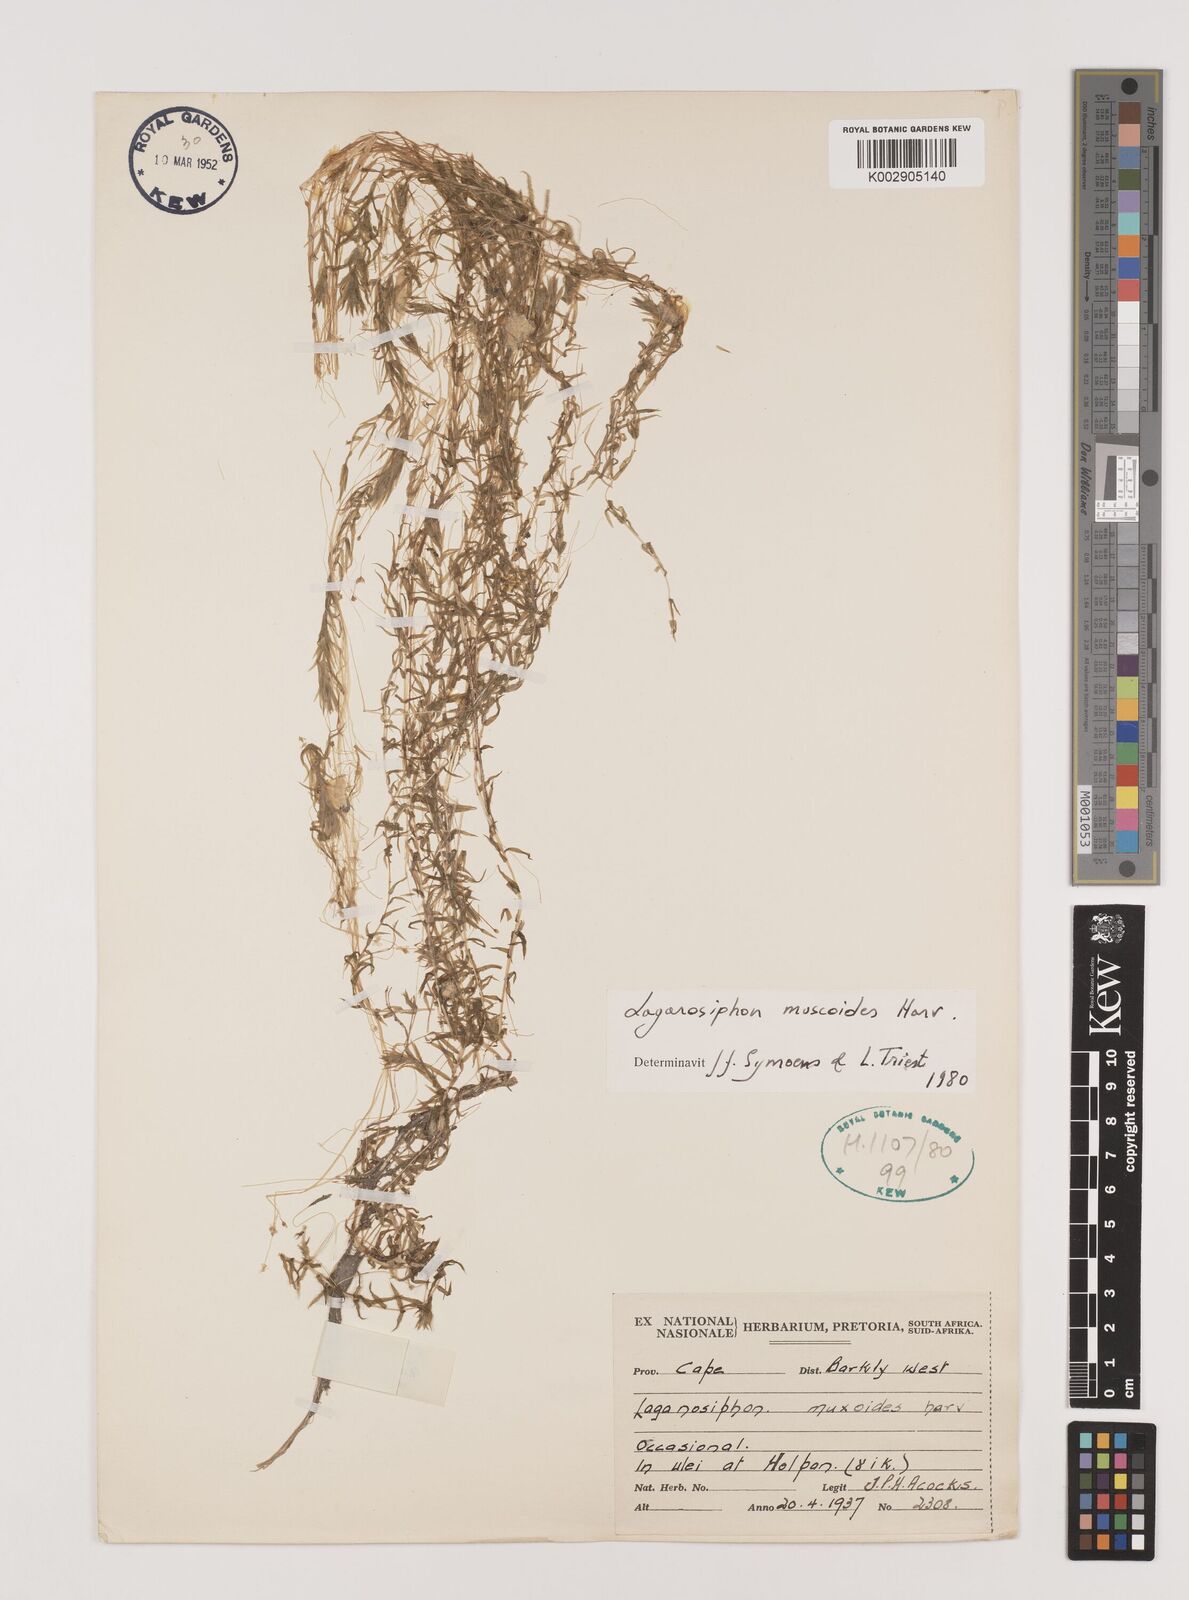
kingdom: Plantae
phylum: Tracheophyta
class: Liliopsida
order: Alismatales
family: Hydrocharitaceae
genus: Lagarosiphon
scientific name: Lagarosiphon muscoides
